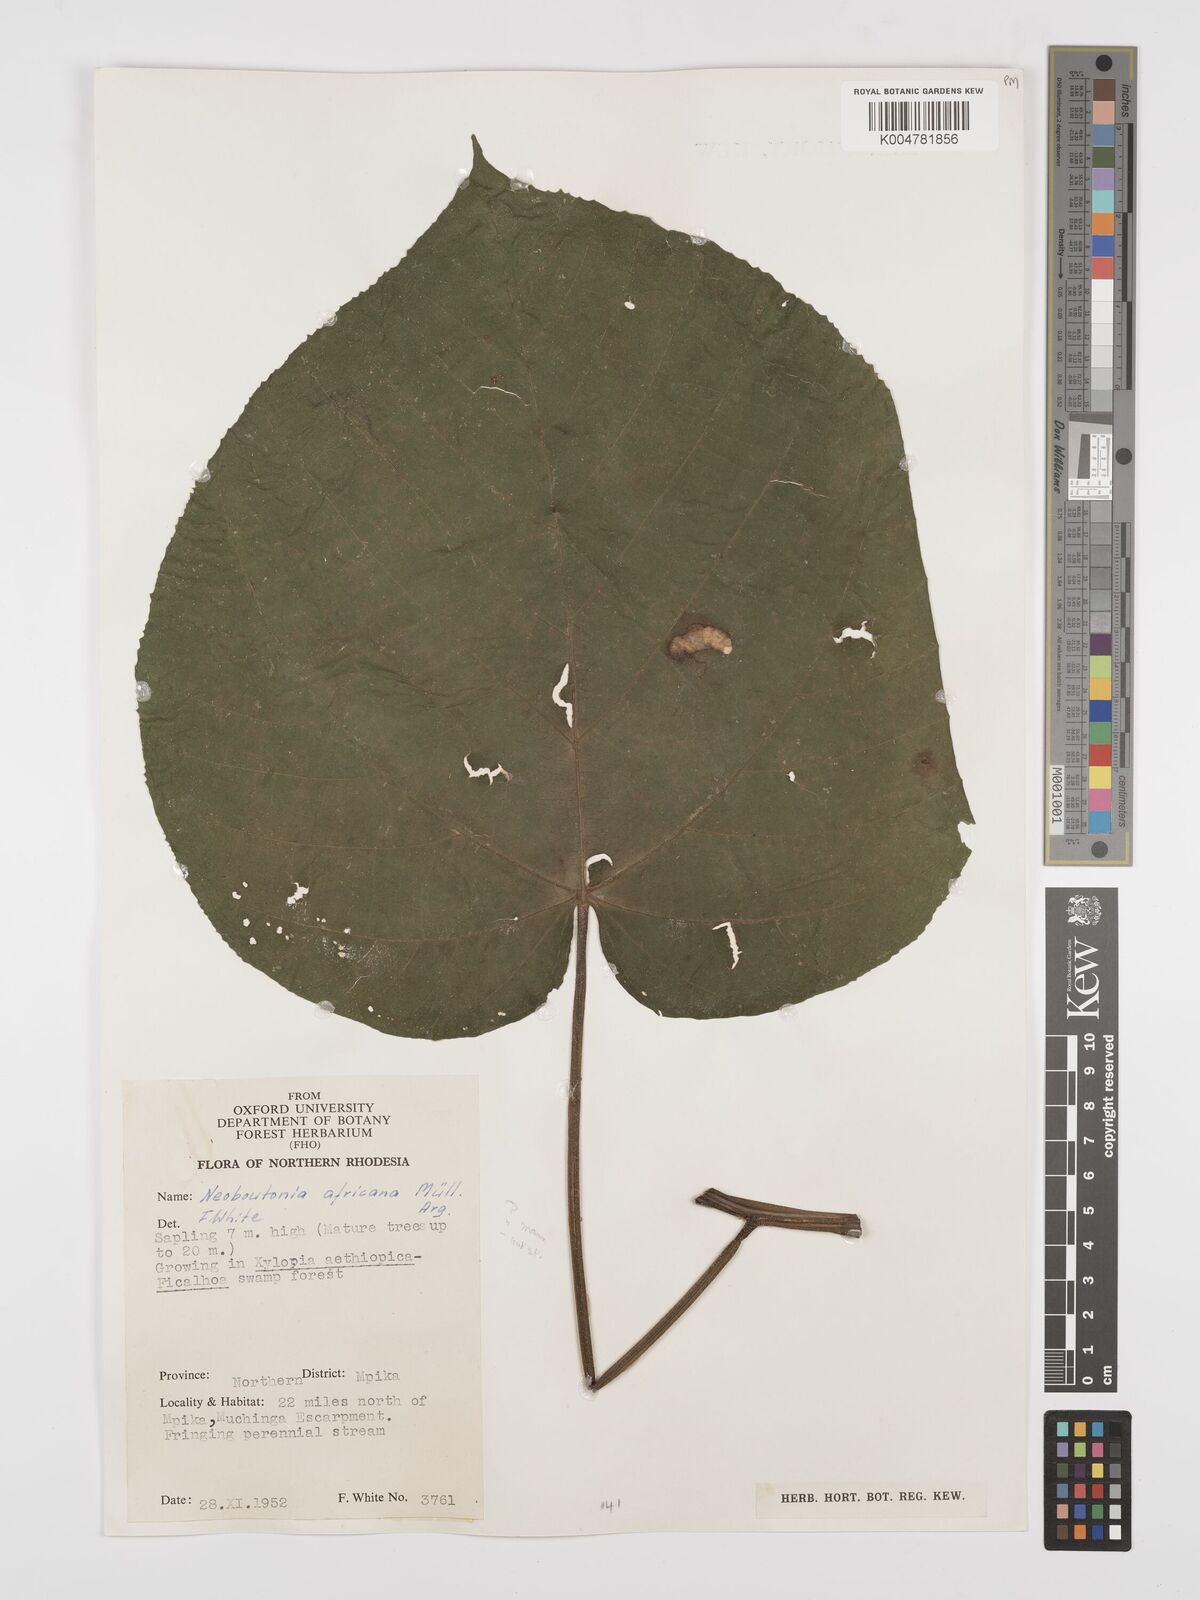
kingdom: Plantae
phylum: Tracheophyta
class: Magnoliopsida
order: Malpighiales
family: Euphorbiaceae
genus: Neoboutonia
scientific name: Neoboutonia mannii
